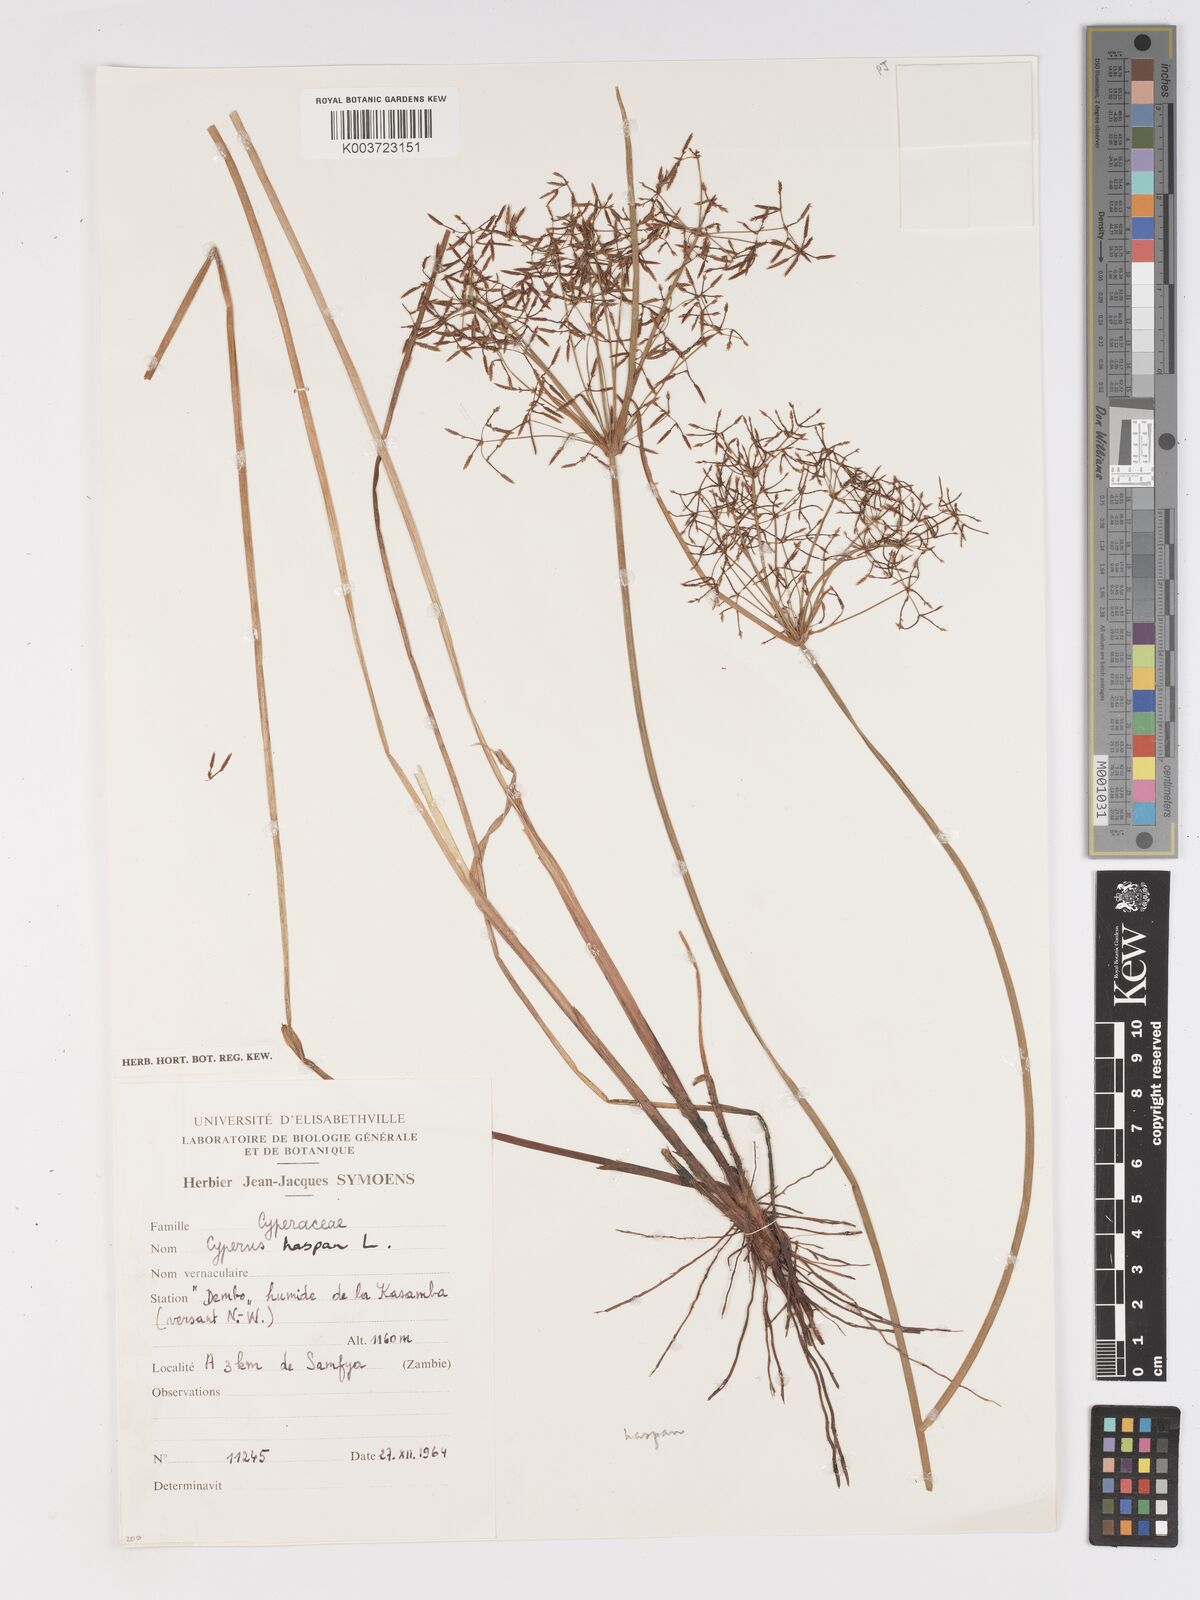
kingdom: Plantae
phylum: Tracheophyta
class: Liliopsida
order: Poales
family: Cyperaceae
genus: Cyperus
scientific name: Cyperus haspan
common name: Haspan flatsedge
